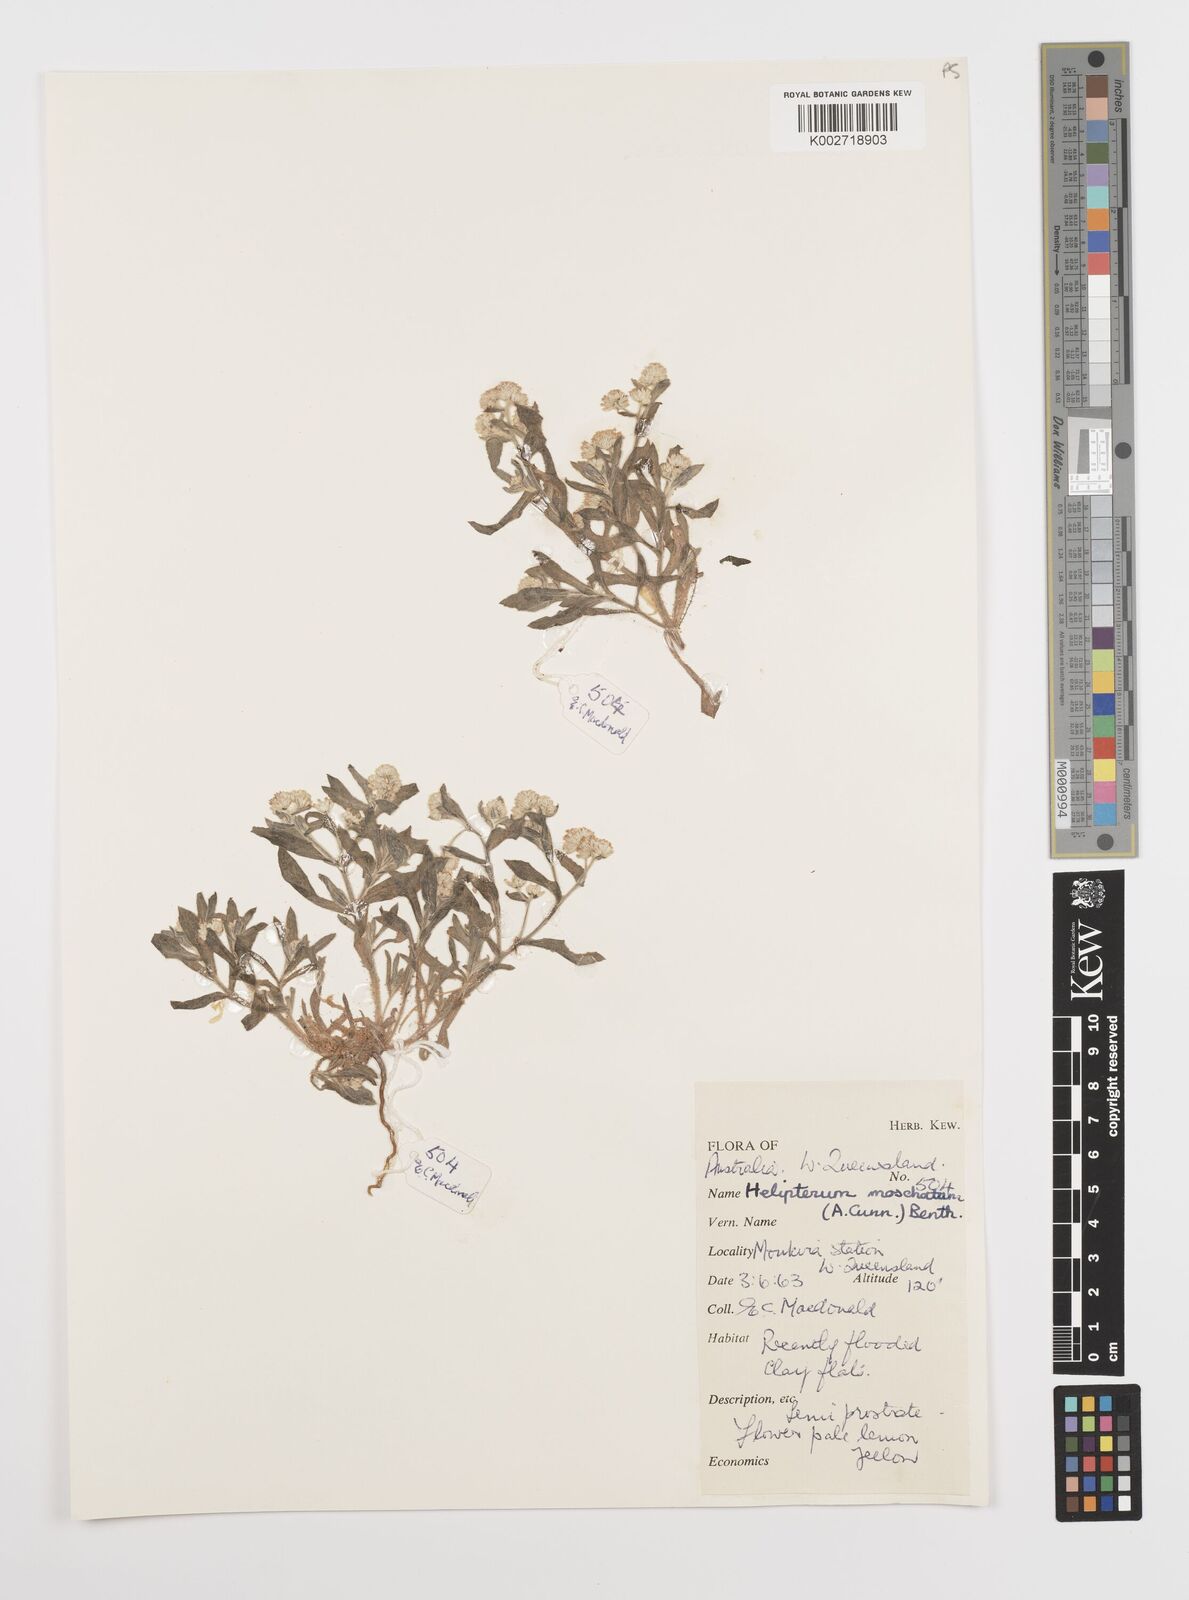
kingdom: Plantae
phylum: Tracheophyta
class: Magnoliopsida
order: Asterales
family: Asteraceae
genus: Rhodanthe
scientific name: Rhodanthe moschata
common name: Musk sunray
